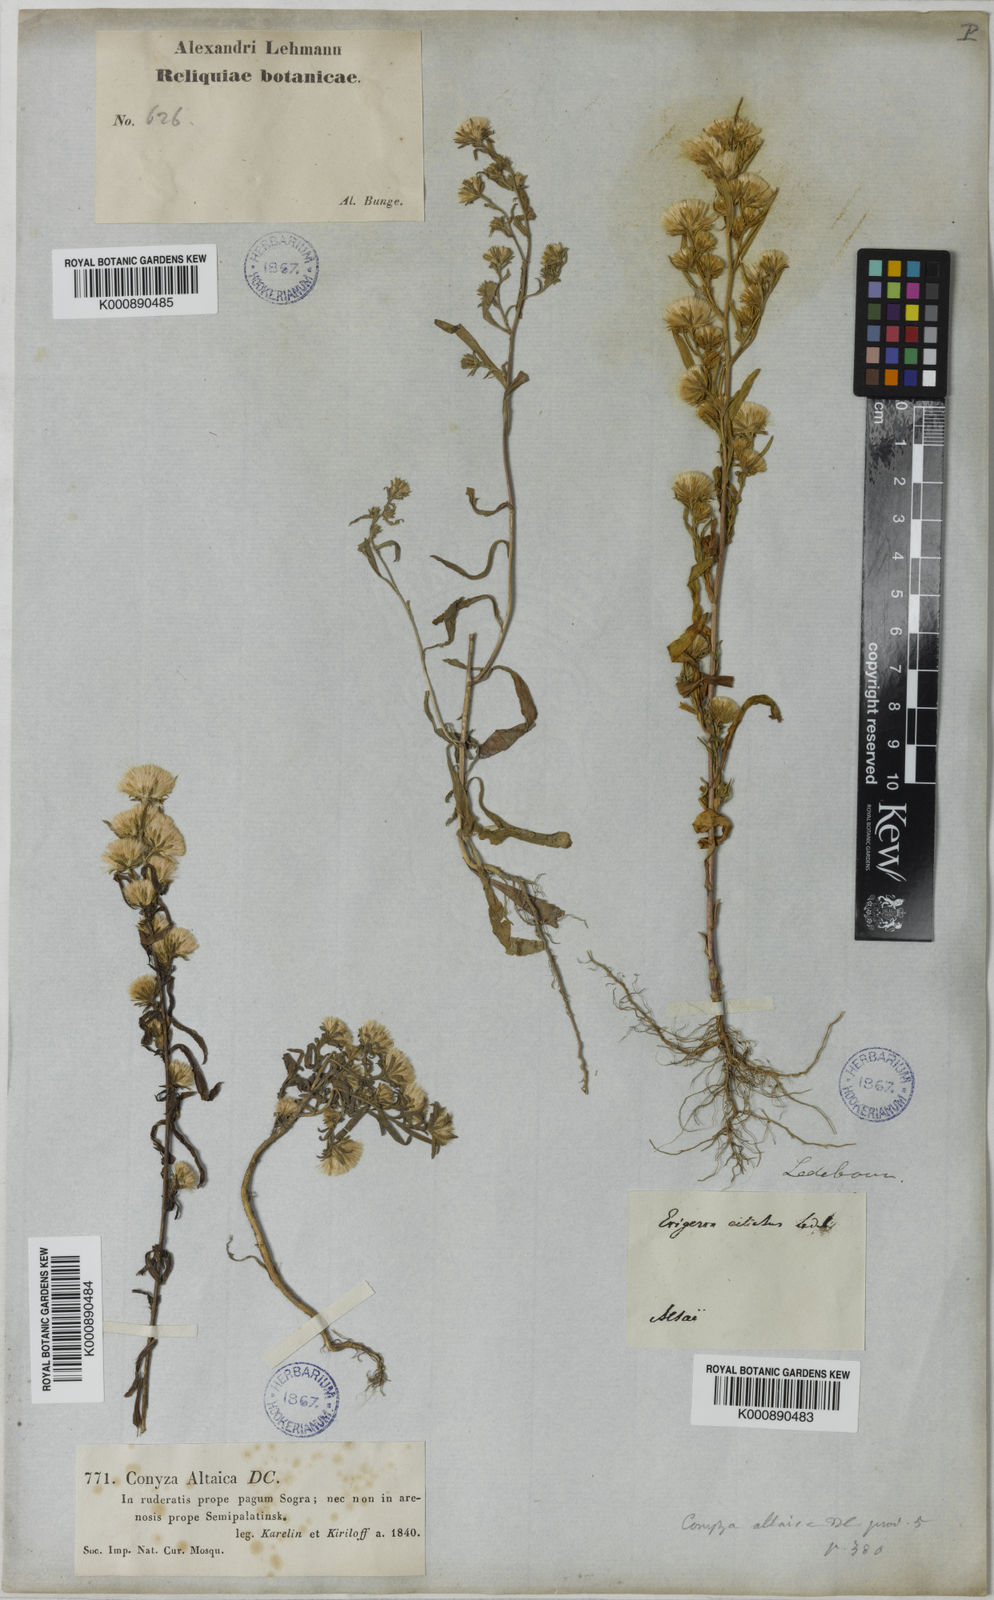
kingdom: Plantae
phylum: Tracheophyta
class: Magnoliopsida
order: Asterales
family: Asteraceae
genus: Aster
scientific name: Aster
